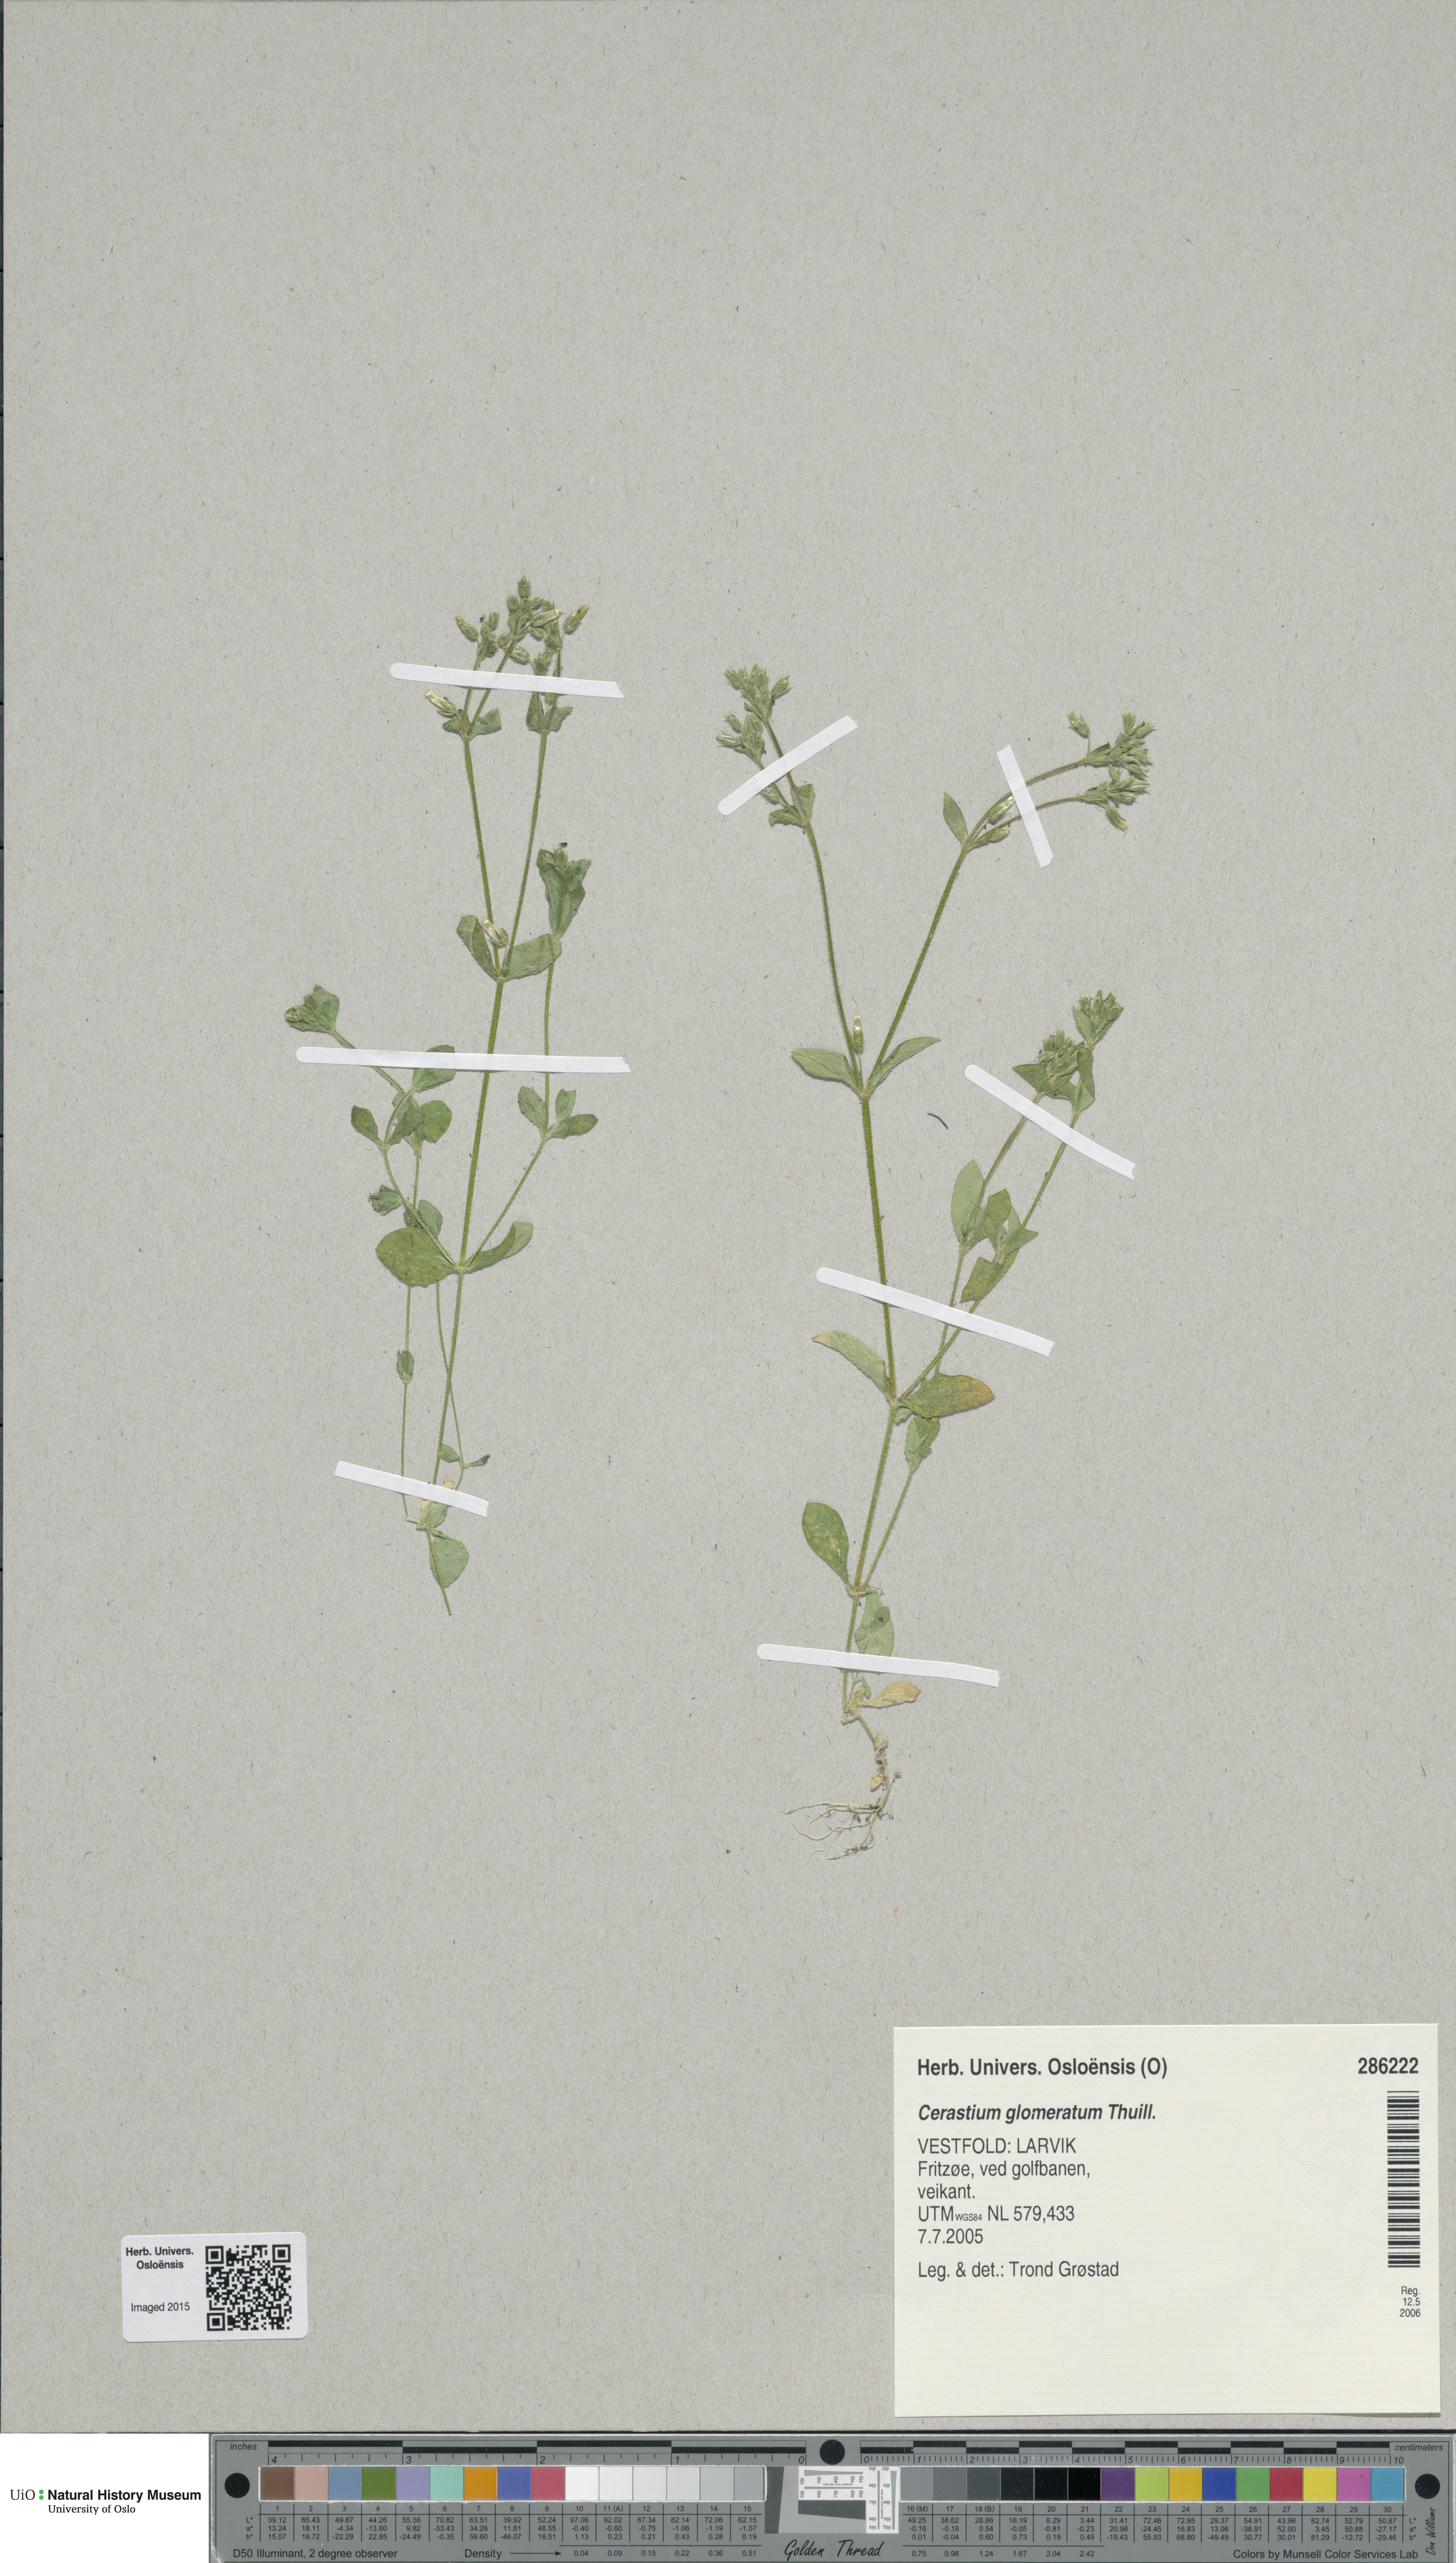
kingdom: Plantae
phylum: Tracheophyta
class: Magnoliopsida
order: Caryophyllales
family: Caryophyllaceae
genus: Cerastium
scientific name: Cerastium glomeratum
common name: Sticky chickweed
